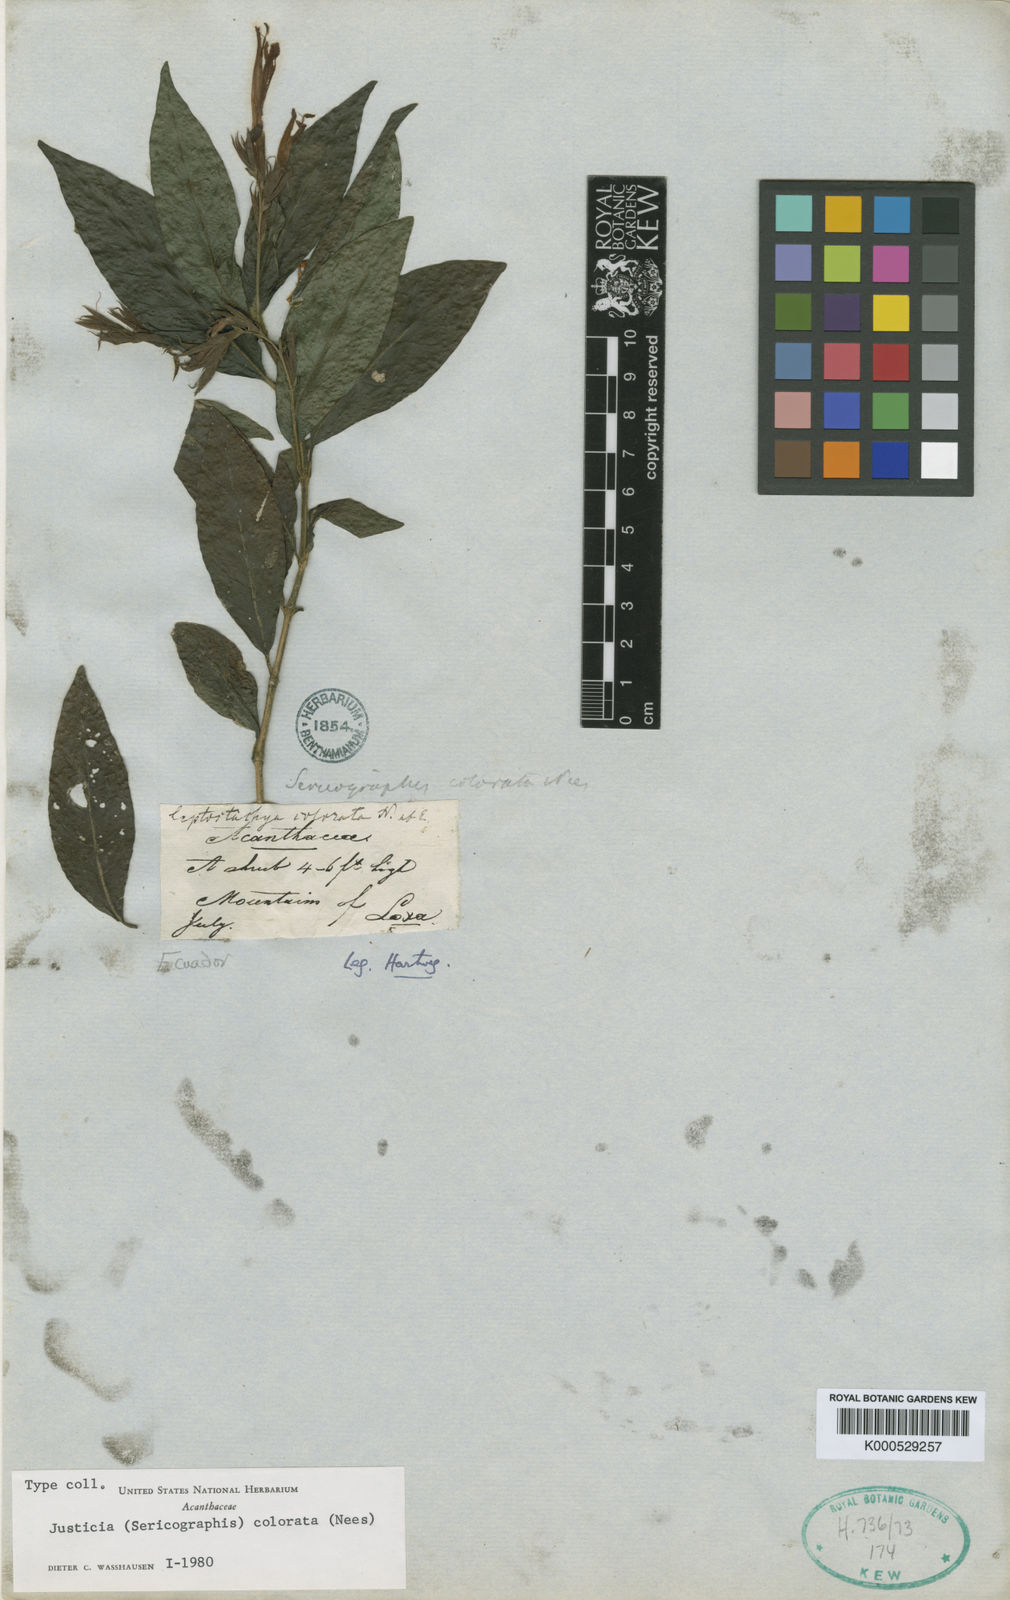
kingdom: Plantae
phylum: Tracheophyta
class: Magnoliopsida
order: Lamiales
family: Acanthaceae
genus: Justicia
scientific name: Justicia colorata
